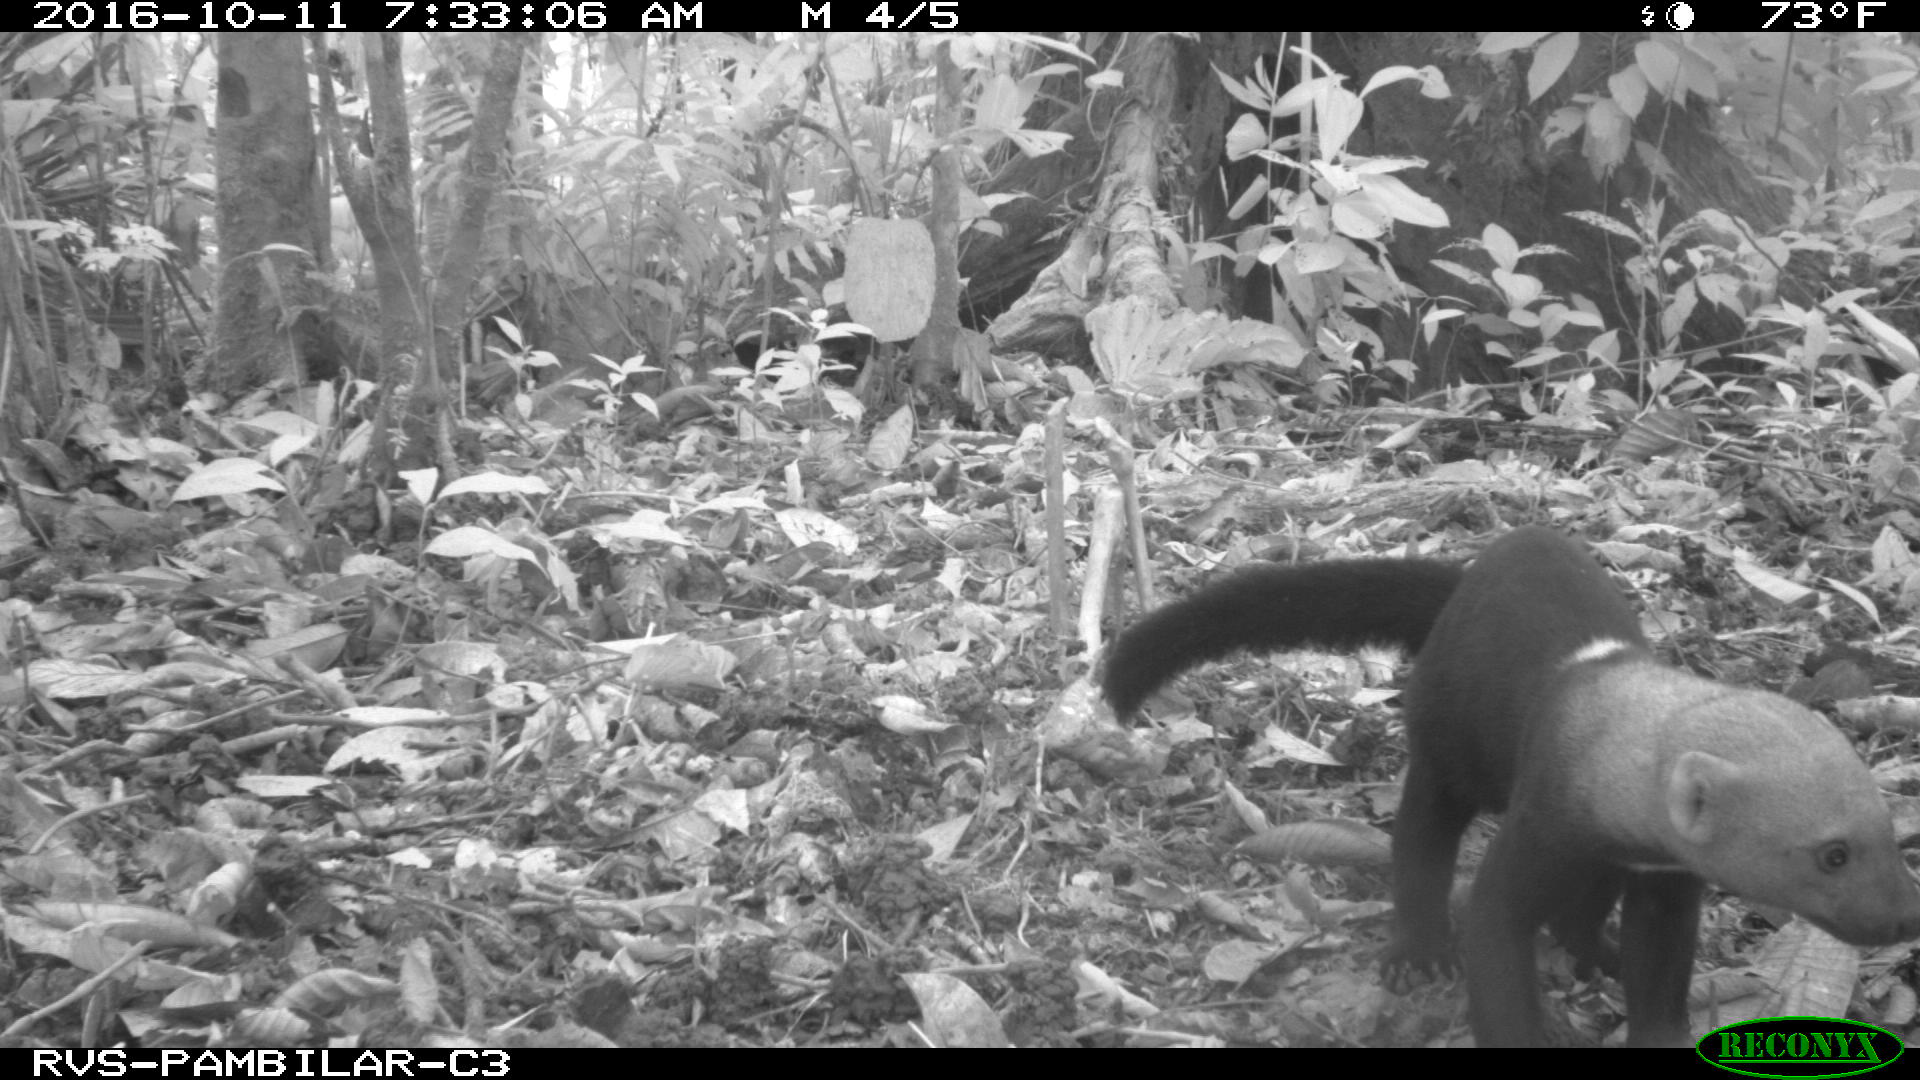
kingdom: Animalia
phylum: Chordata
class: Mammalia
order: Carnivora
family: Mustelidae
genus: Eira
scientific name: Eira barbara
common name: Tayra
